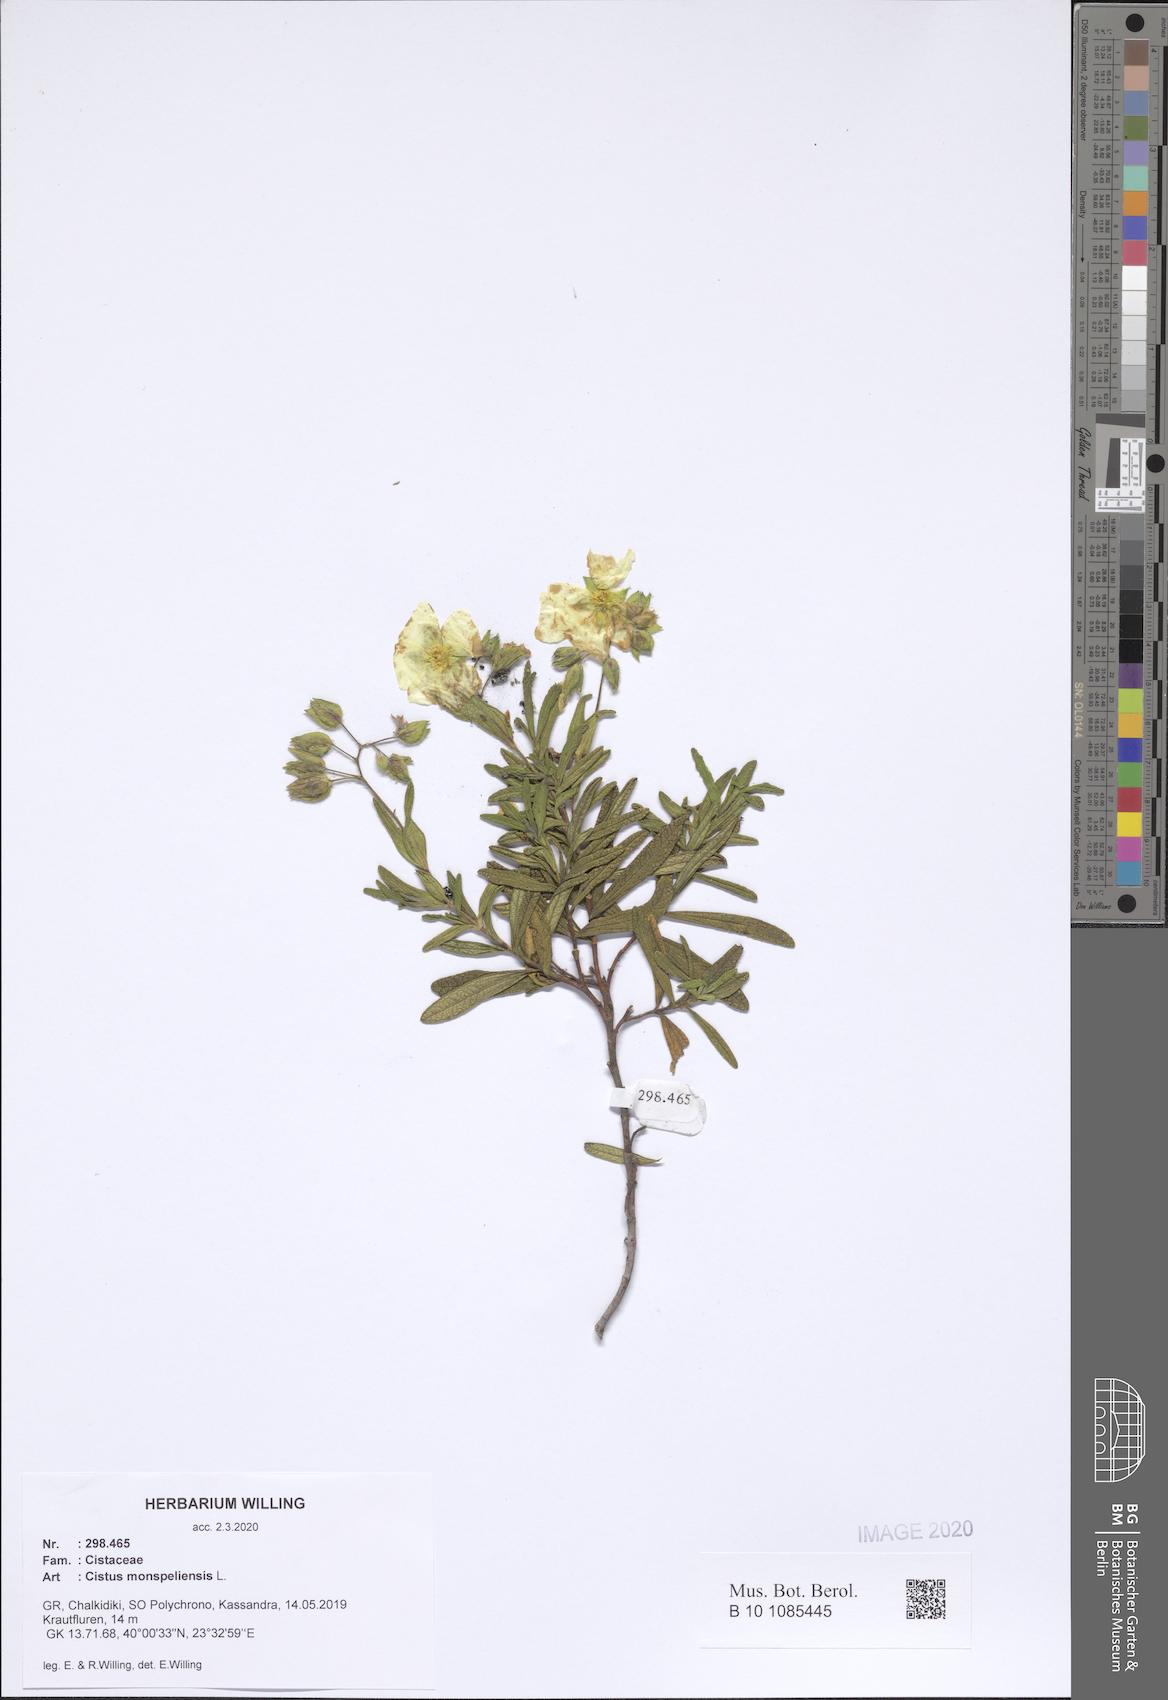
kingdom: Plantae
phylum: Tracheophyta
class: Magnoliopsida
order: Malvales
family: Cistaceae
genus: Cistus
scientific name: Cistus monspeliensis
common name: Montpelier cistus
